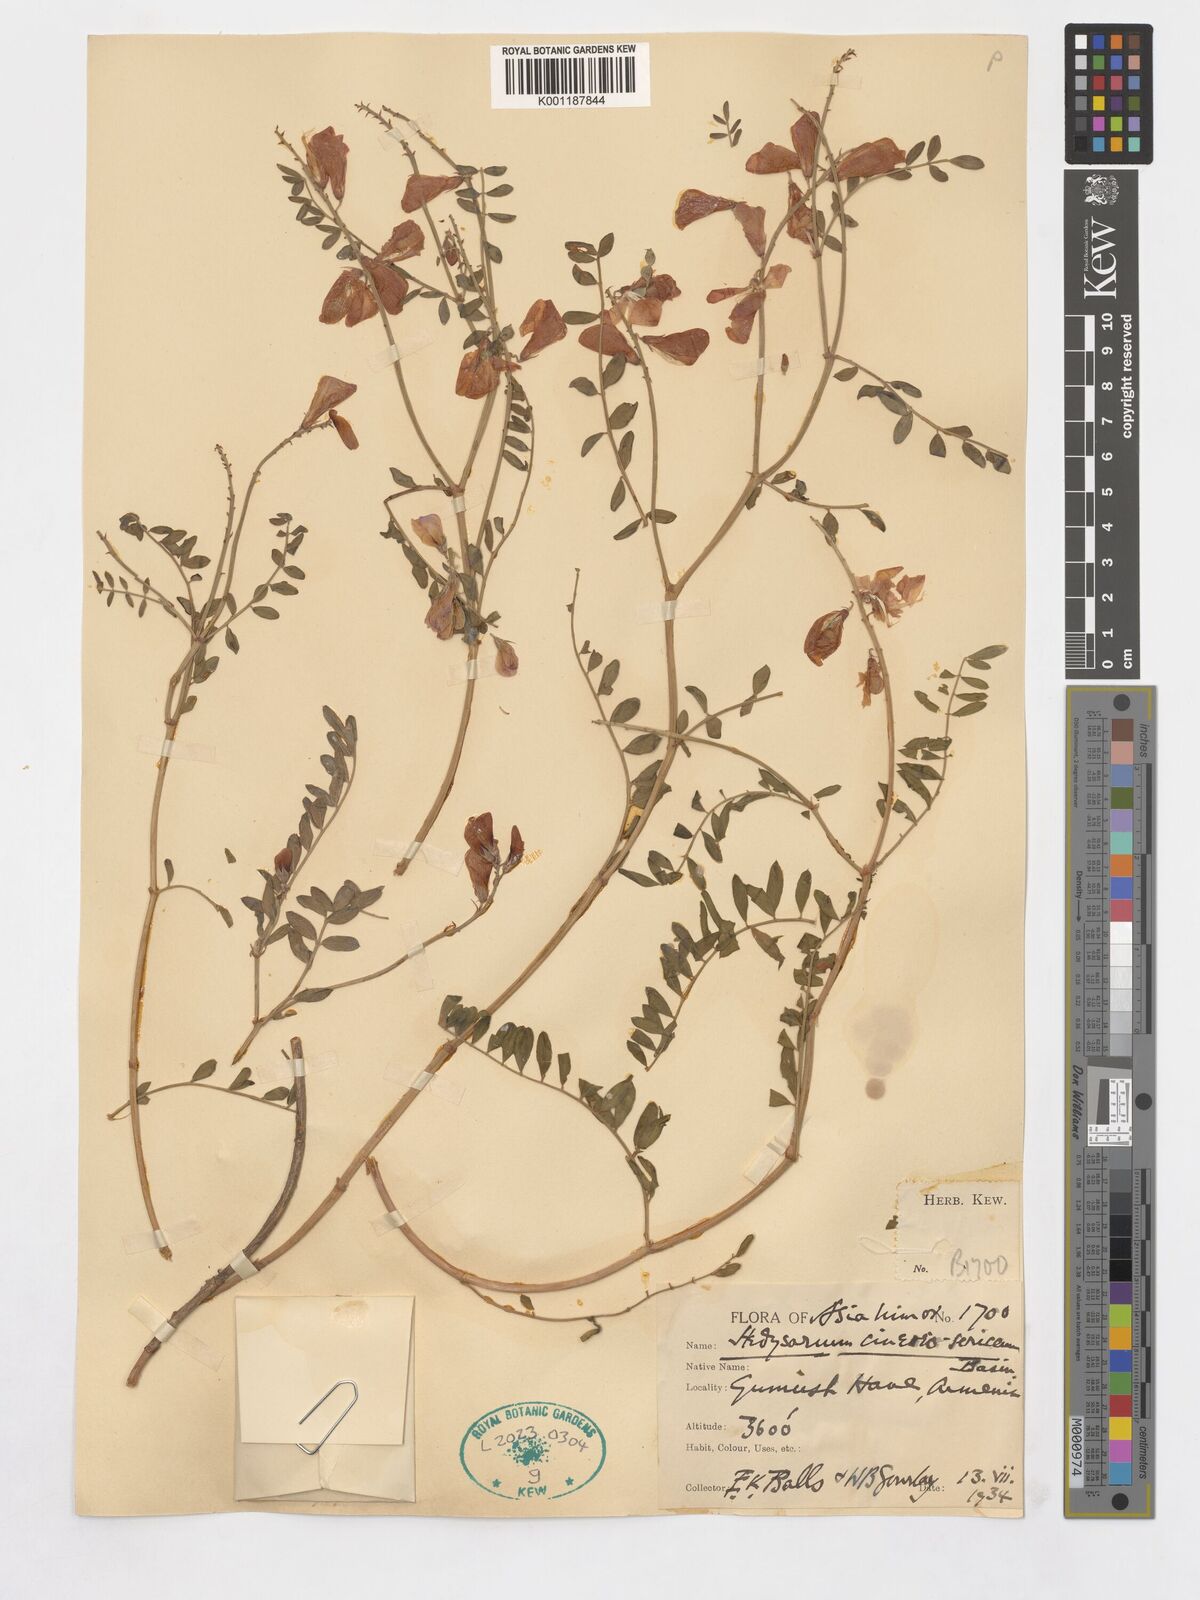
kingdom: Plantae
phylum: Tracheophyta
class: Magnoliopsida
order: Fabales
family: Fabaceae
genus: Hedysarum
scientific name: Hedysarum nitidum
